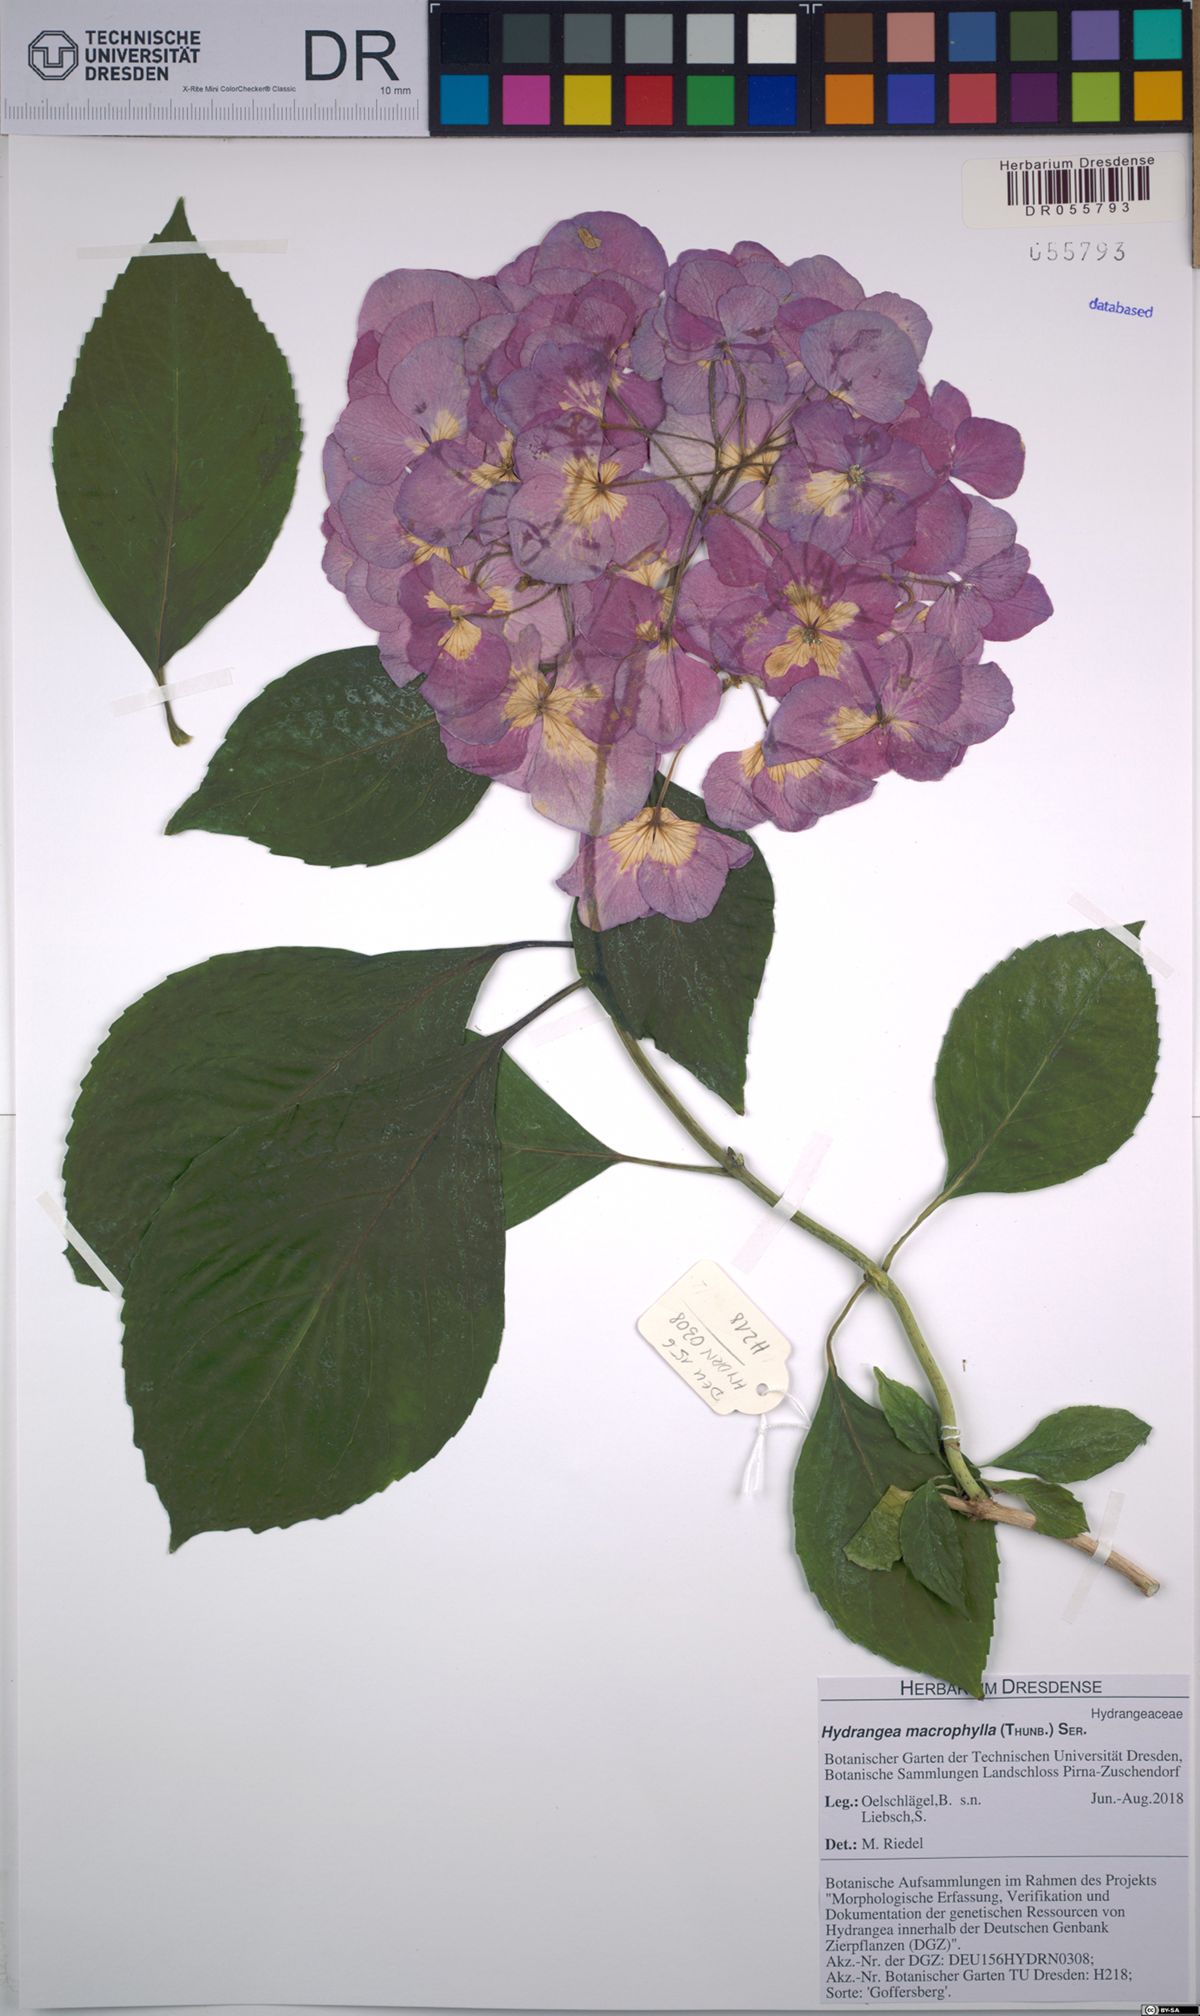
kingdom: Plantae
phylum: Tracheophyta
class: Magnoliopsida
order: Cornales
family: Hydrangeaceae
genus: Hydrangea
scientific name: Hydrangea macrophylla
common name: Hydrangea
